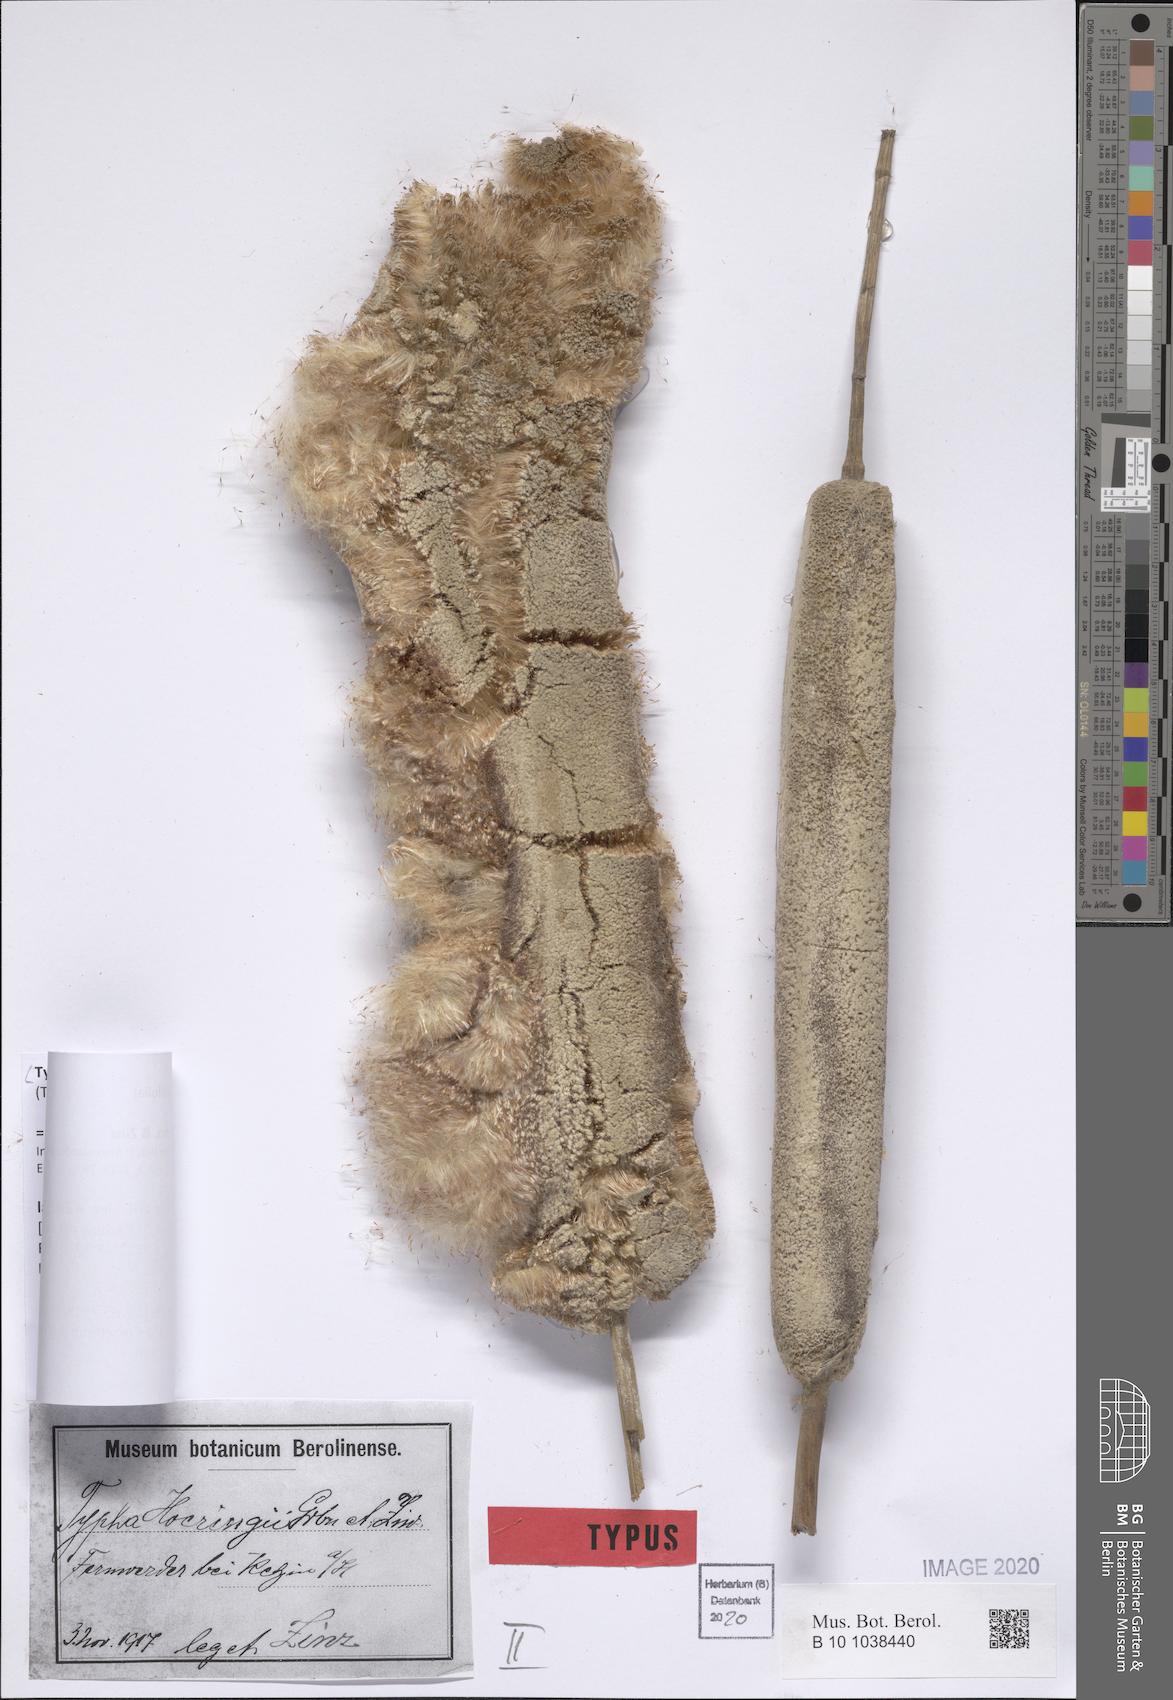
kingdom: Plantae
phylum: Tracheophyta
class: Liliopsida
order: Poales
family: Typhaceae
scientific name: Typhaceae
